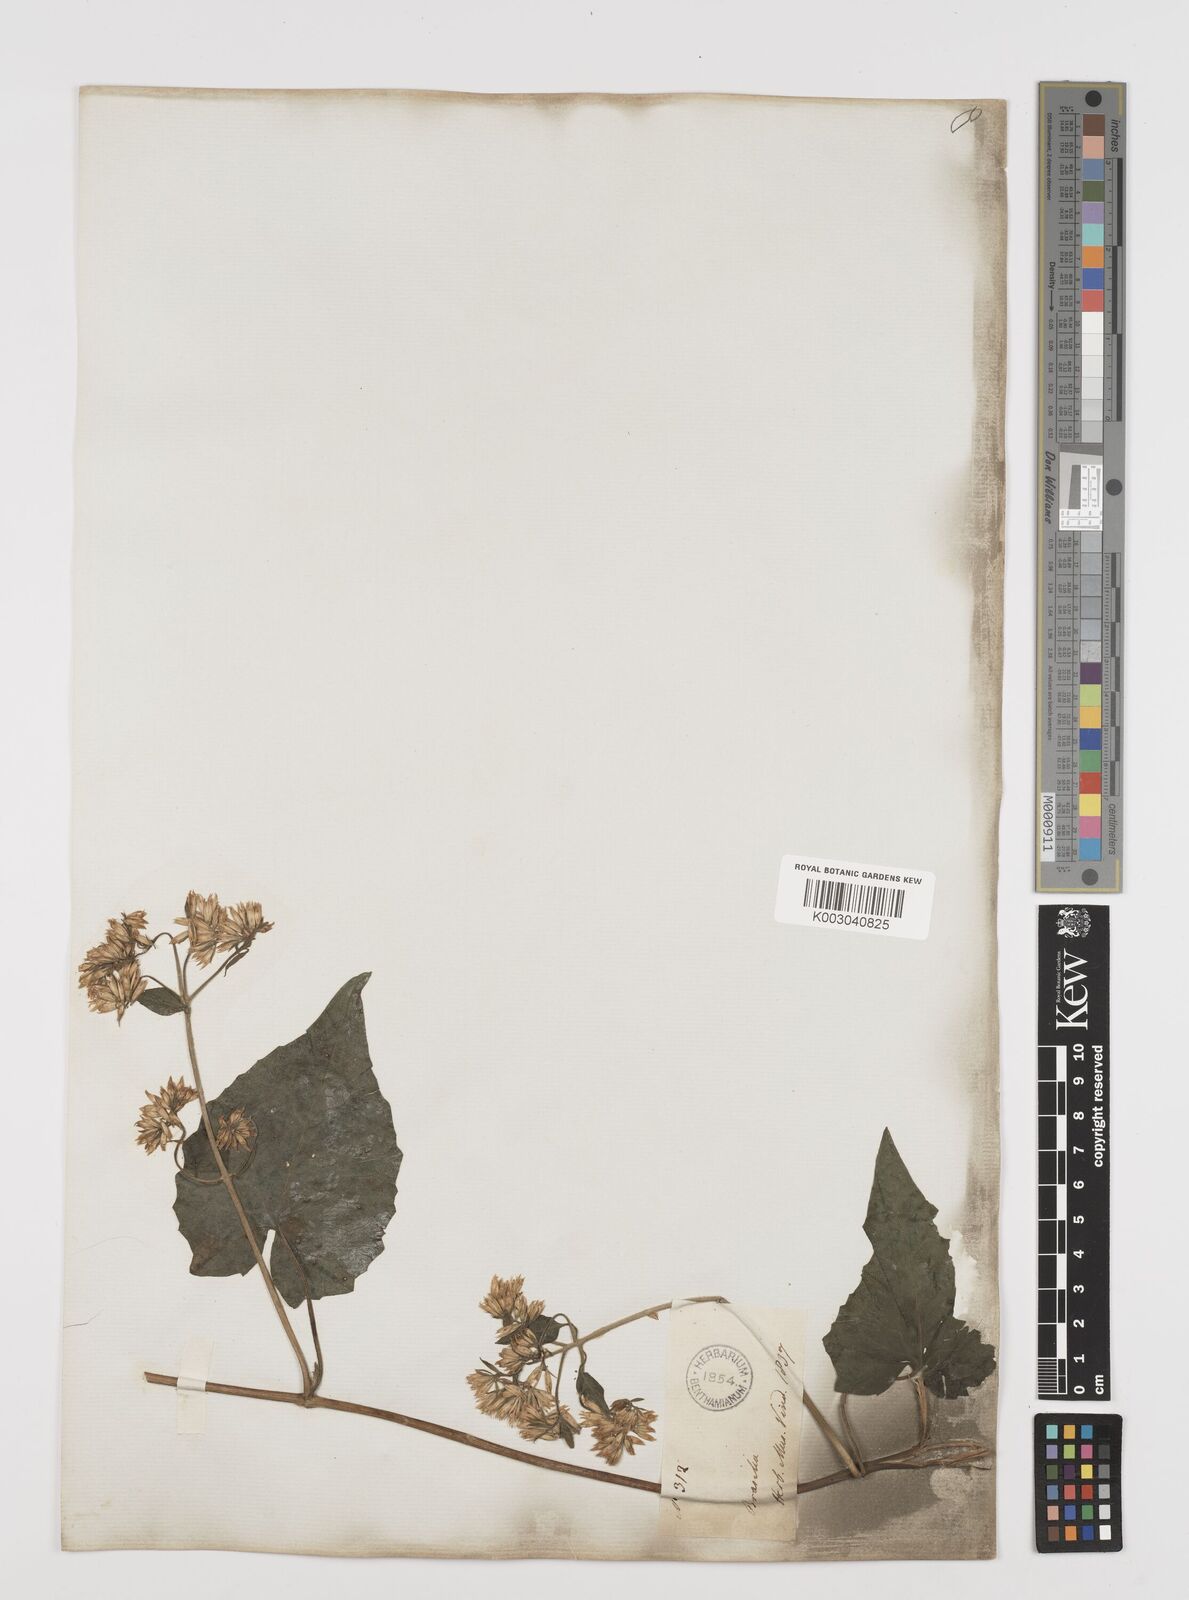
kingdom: Plantae
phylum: Tracheophyta
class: Magnoliopsida
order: Asterales
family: Asteraceae
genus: Mikania
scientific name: Mikania cordifolia
